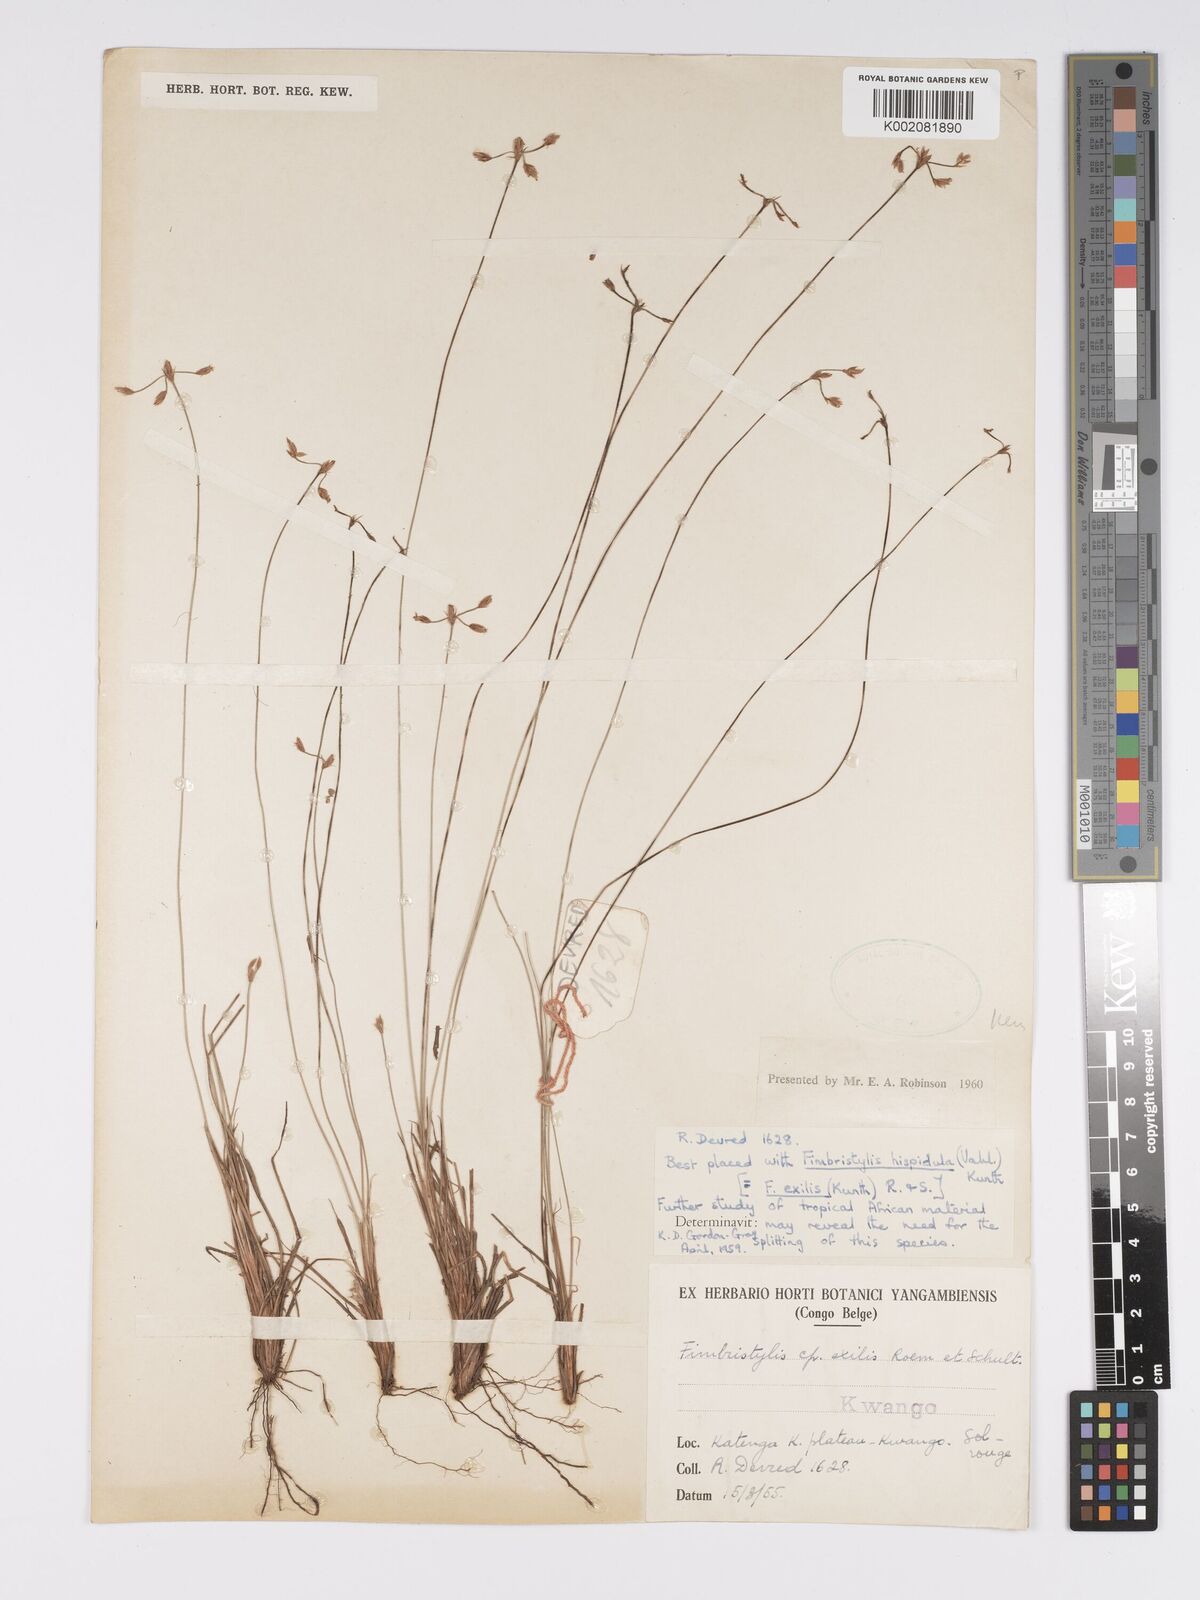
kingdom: Plantae
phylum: Tracheophyta
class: Liliopsida
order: Poales
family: Cyperaceae
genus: Bulbostylis
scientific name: Bulbostylis hispidula
